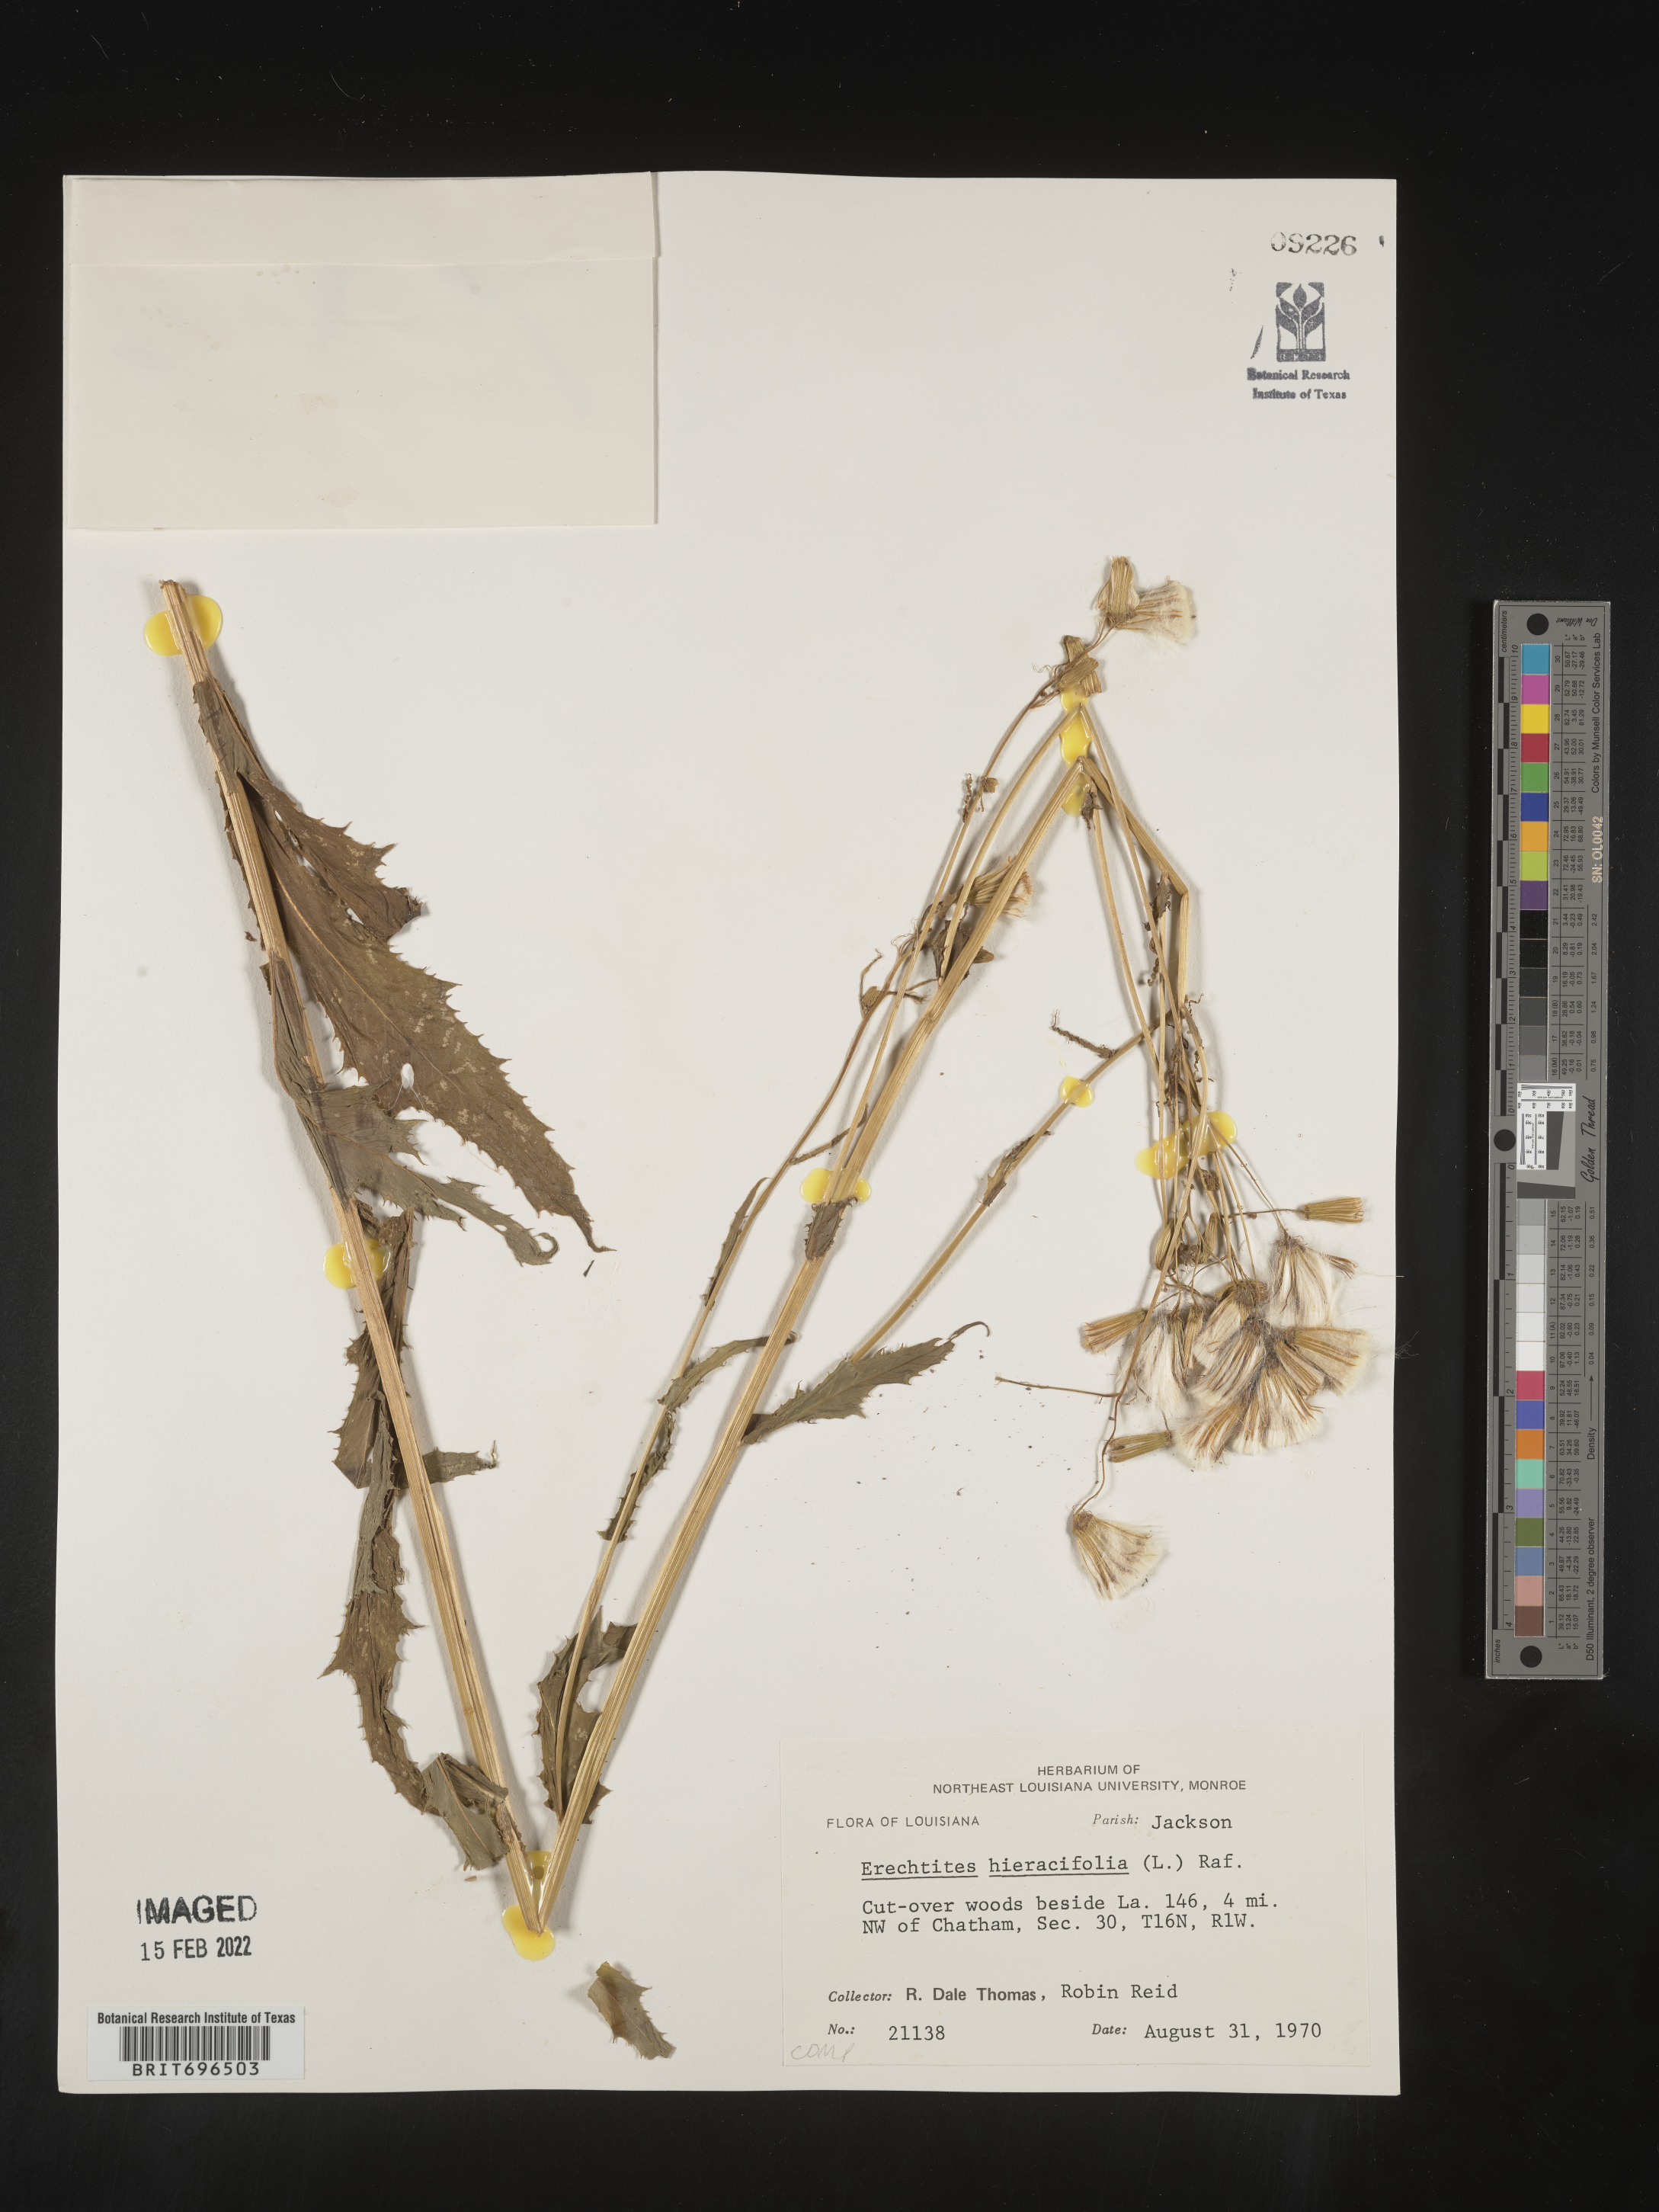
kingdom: Plantae
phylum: Tracheophyta
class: Magnoliopsida
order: Asterales
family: Asteraceae
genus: Erechtites
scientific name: Erechtites hieraciifolius
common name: American burnweed
